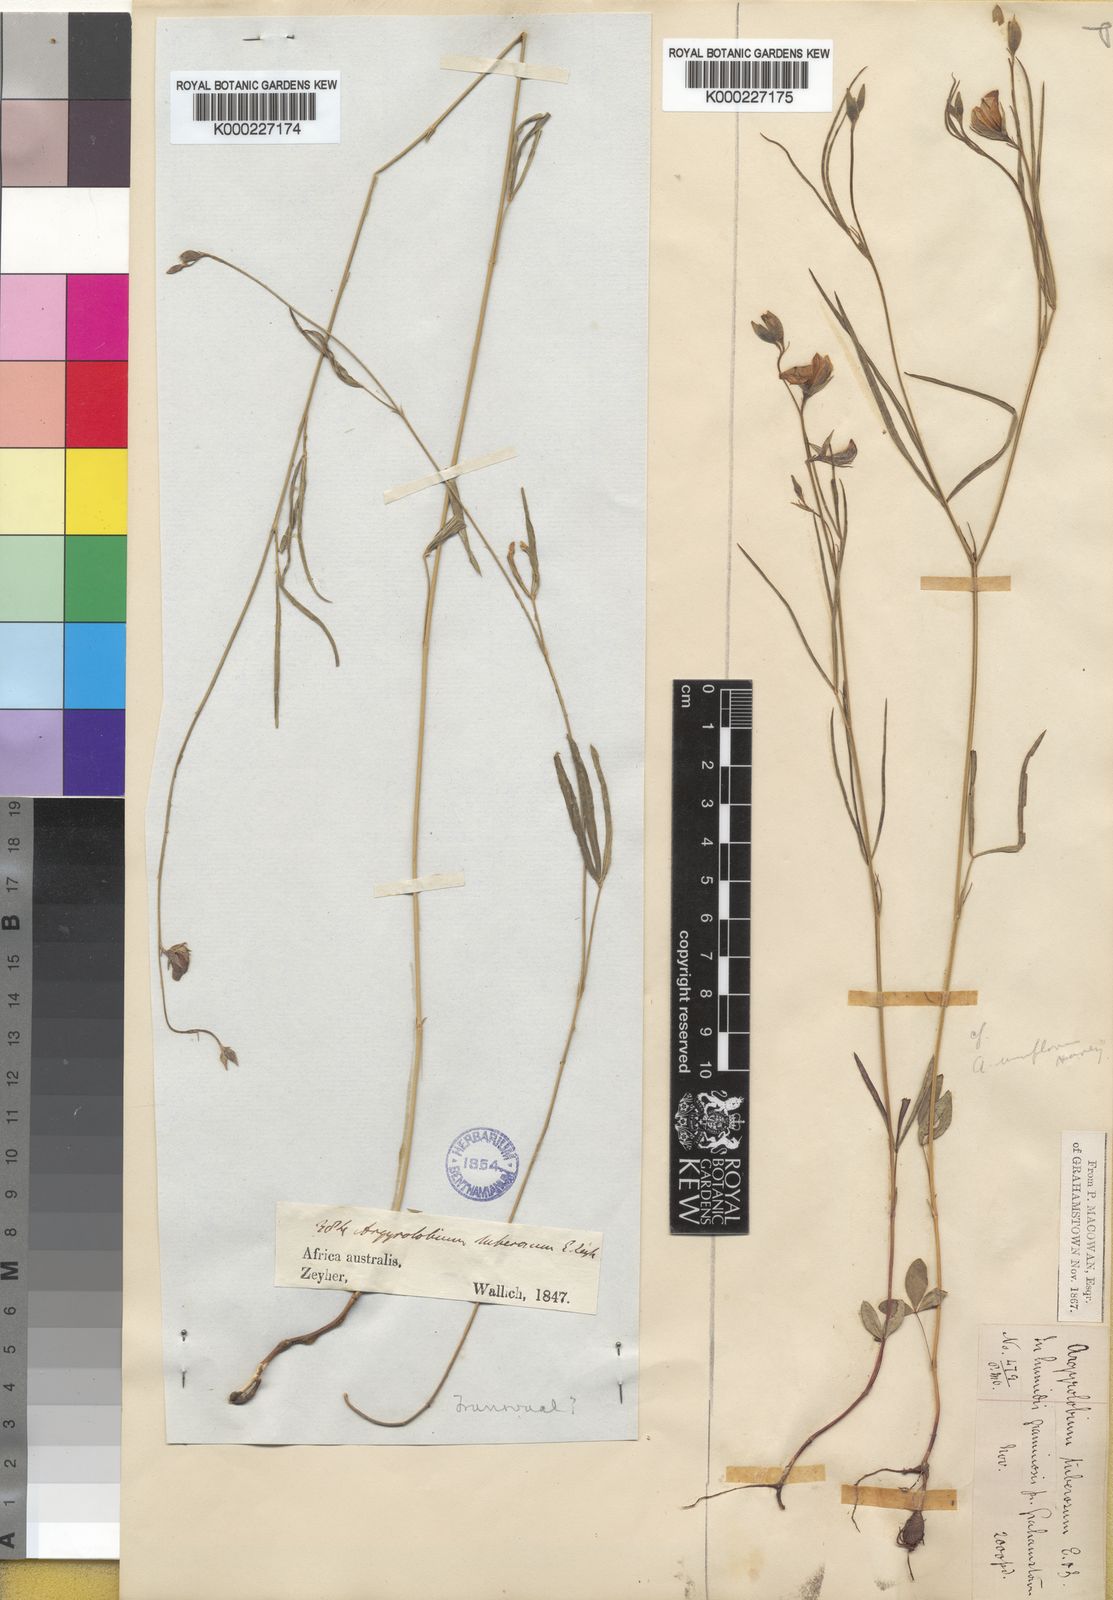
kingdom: Plantae
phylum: Tracheophyta
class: Magnoliopsida
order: Fabales
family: Fabaceae
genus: Argyrolobium
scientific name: Argyrolobium tuberosum
